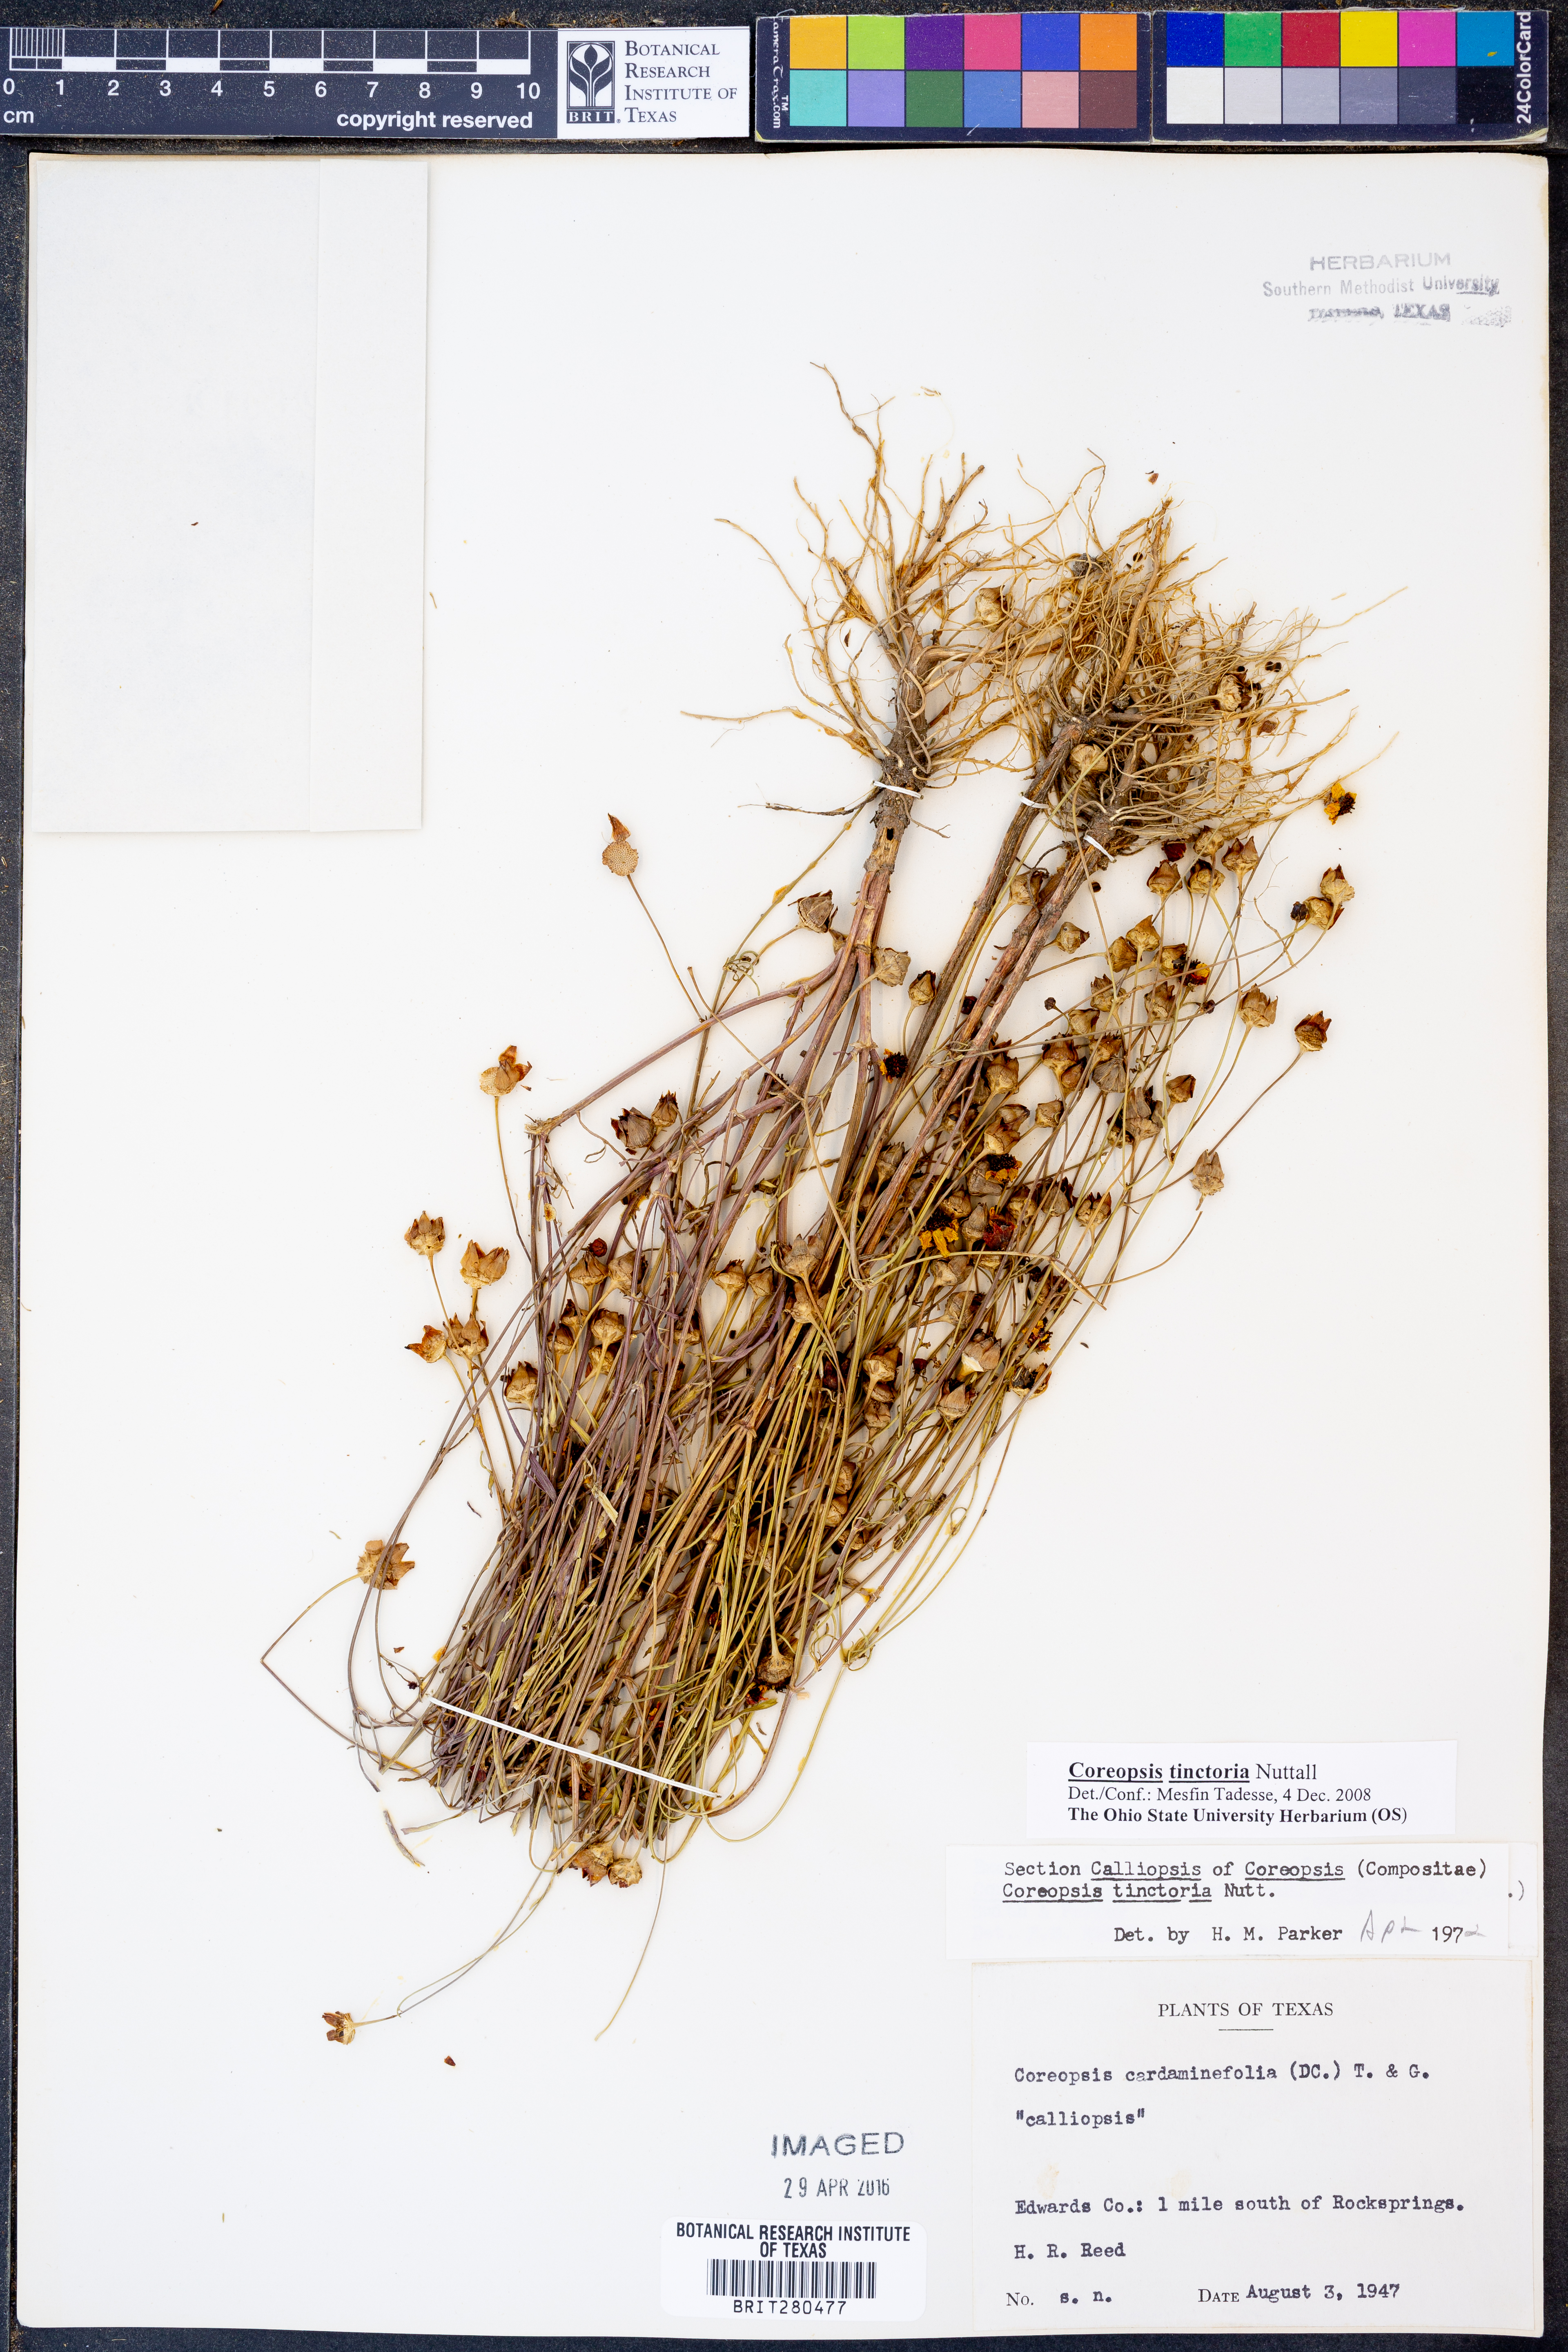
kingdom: Plantae
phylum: Tracheophyta
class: Magnoliopsida
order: Asterales
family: Asteraceae
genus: Coreopsis
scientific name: Coreopsis tinctoria
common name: Garden tickseed
